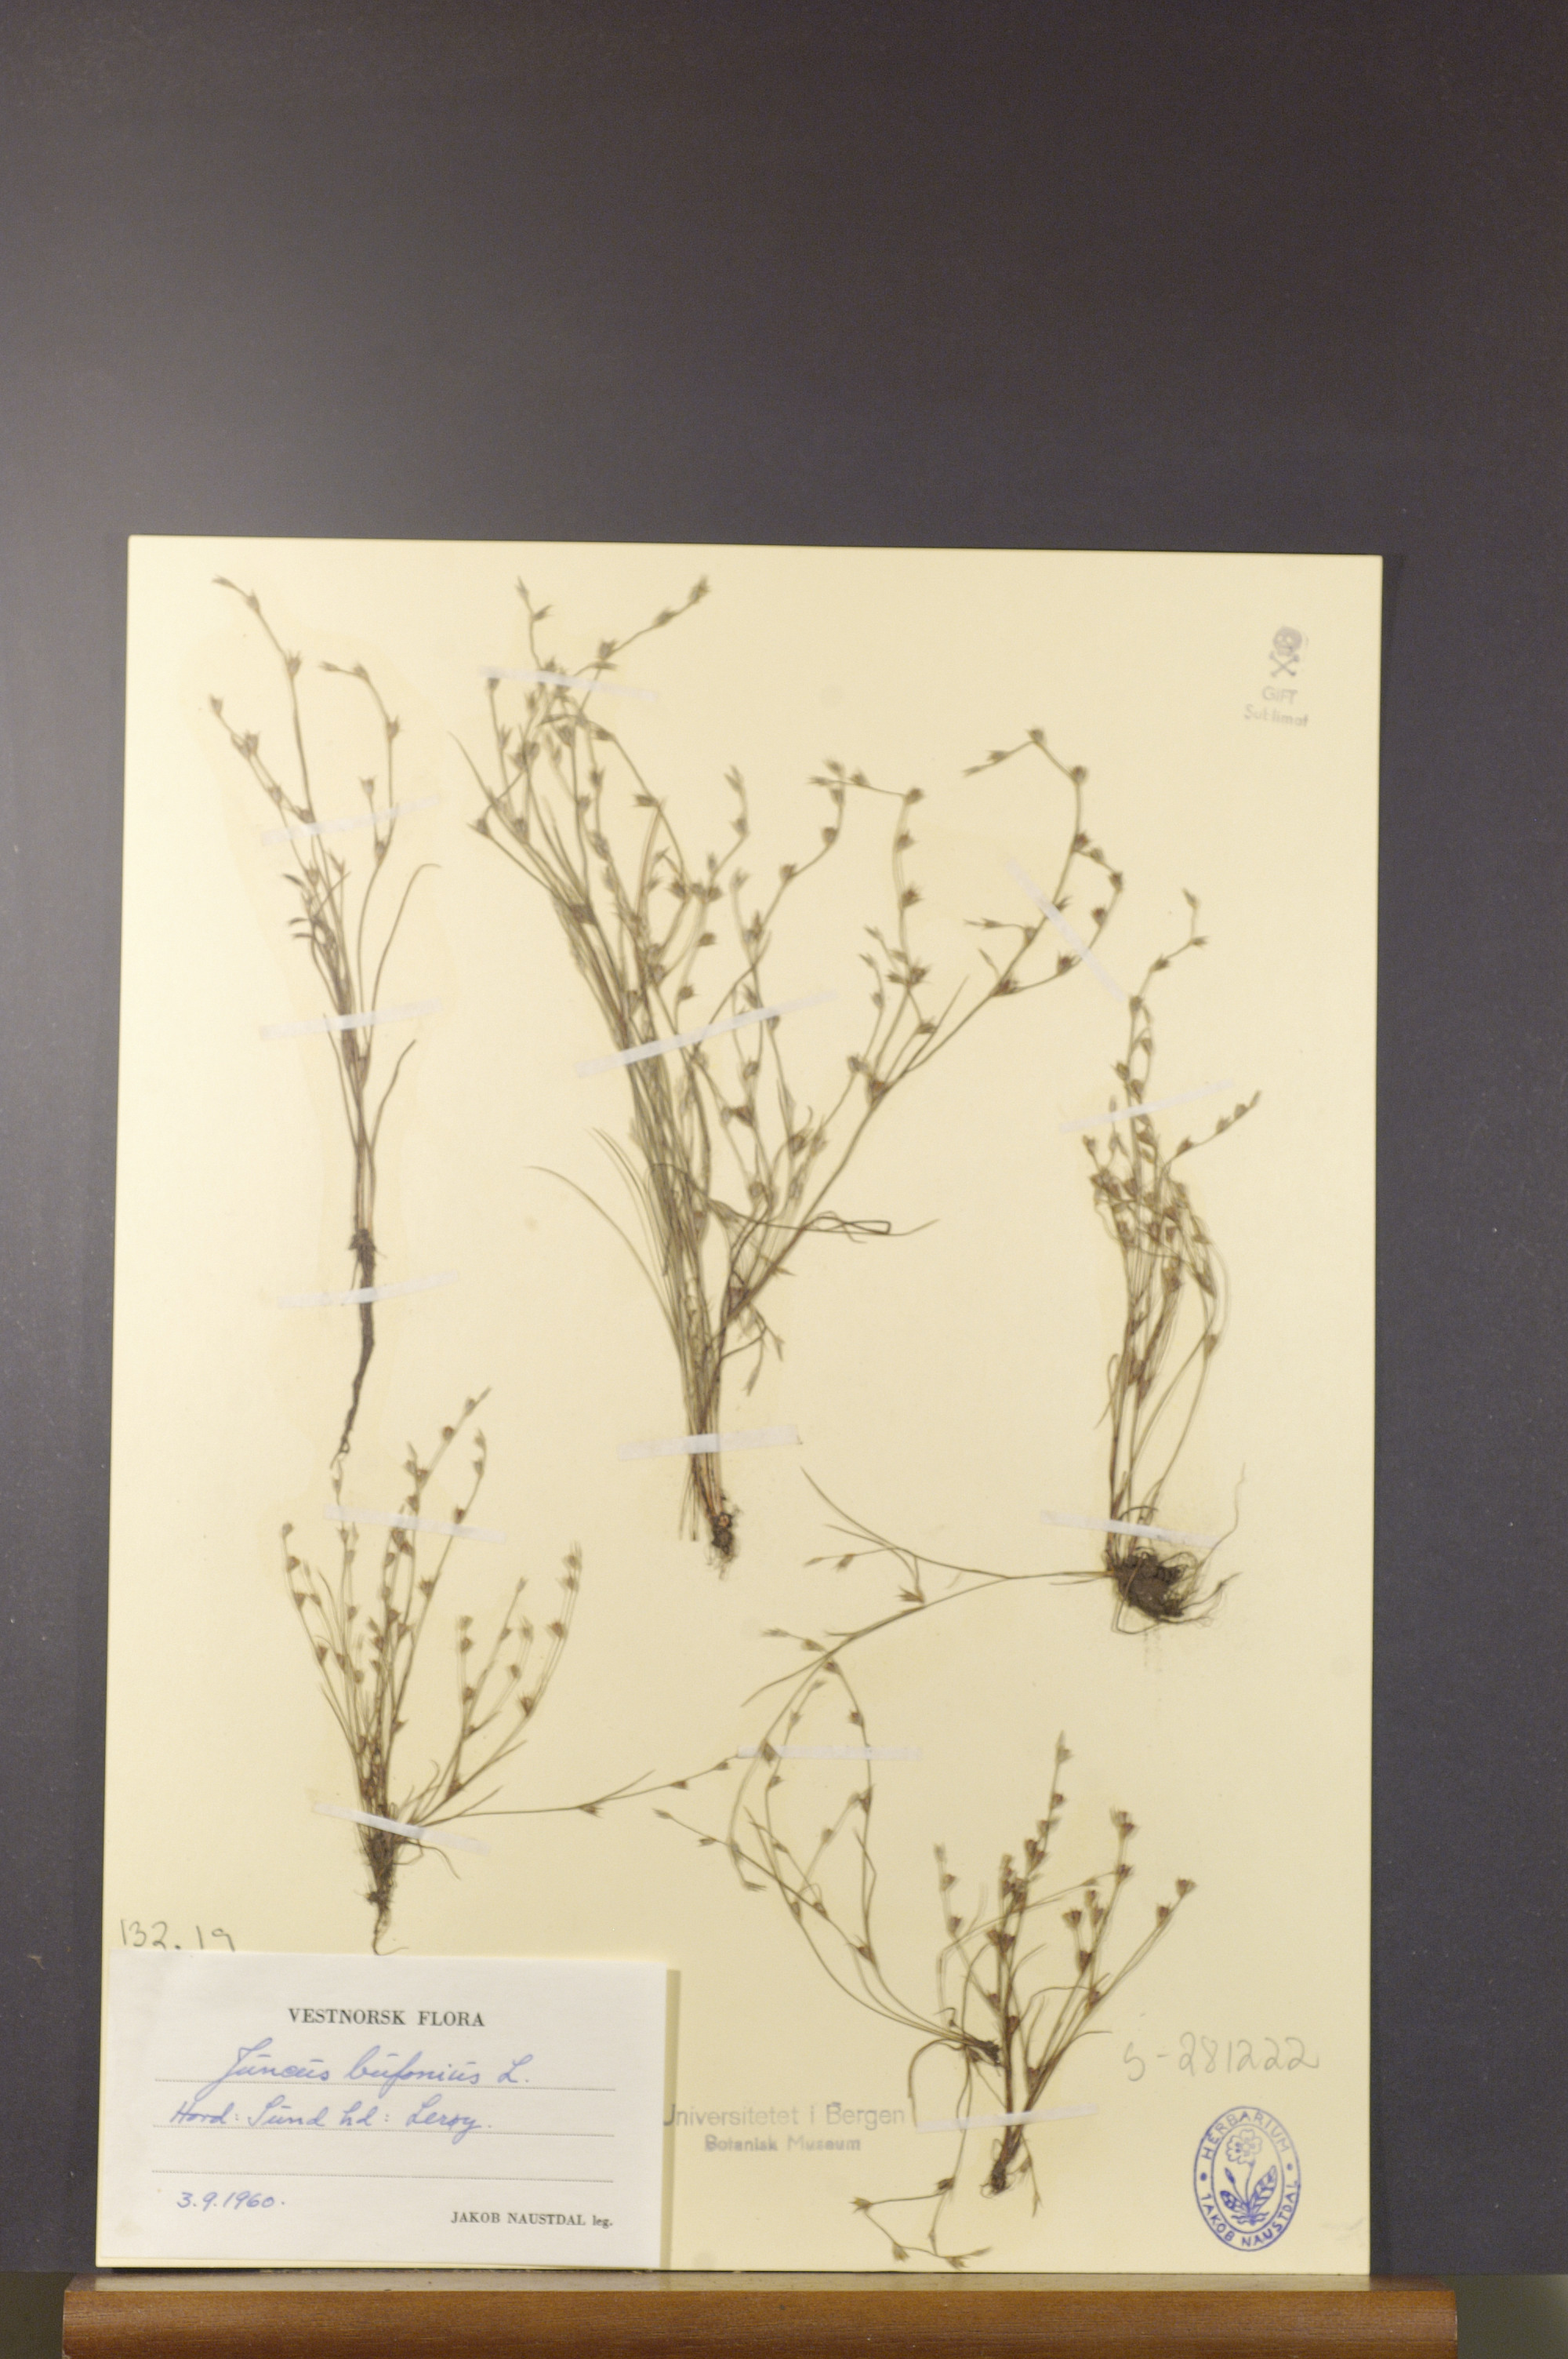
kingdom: Plantae
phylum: Tracheophyta
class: Liliopsida
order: Poales
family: Juncaceae
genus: Juncus
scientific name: Juncus bufonius
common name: Toad rush
